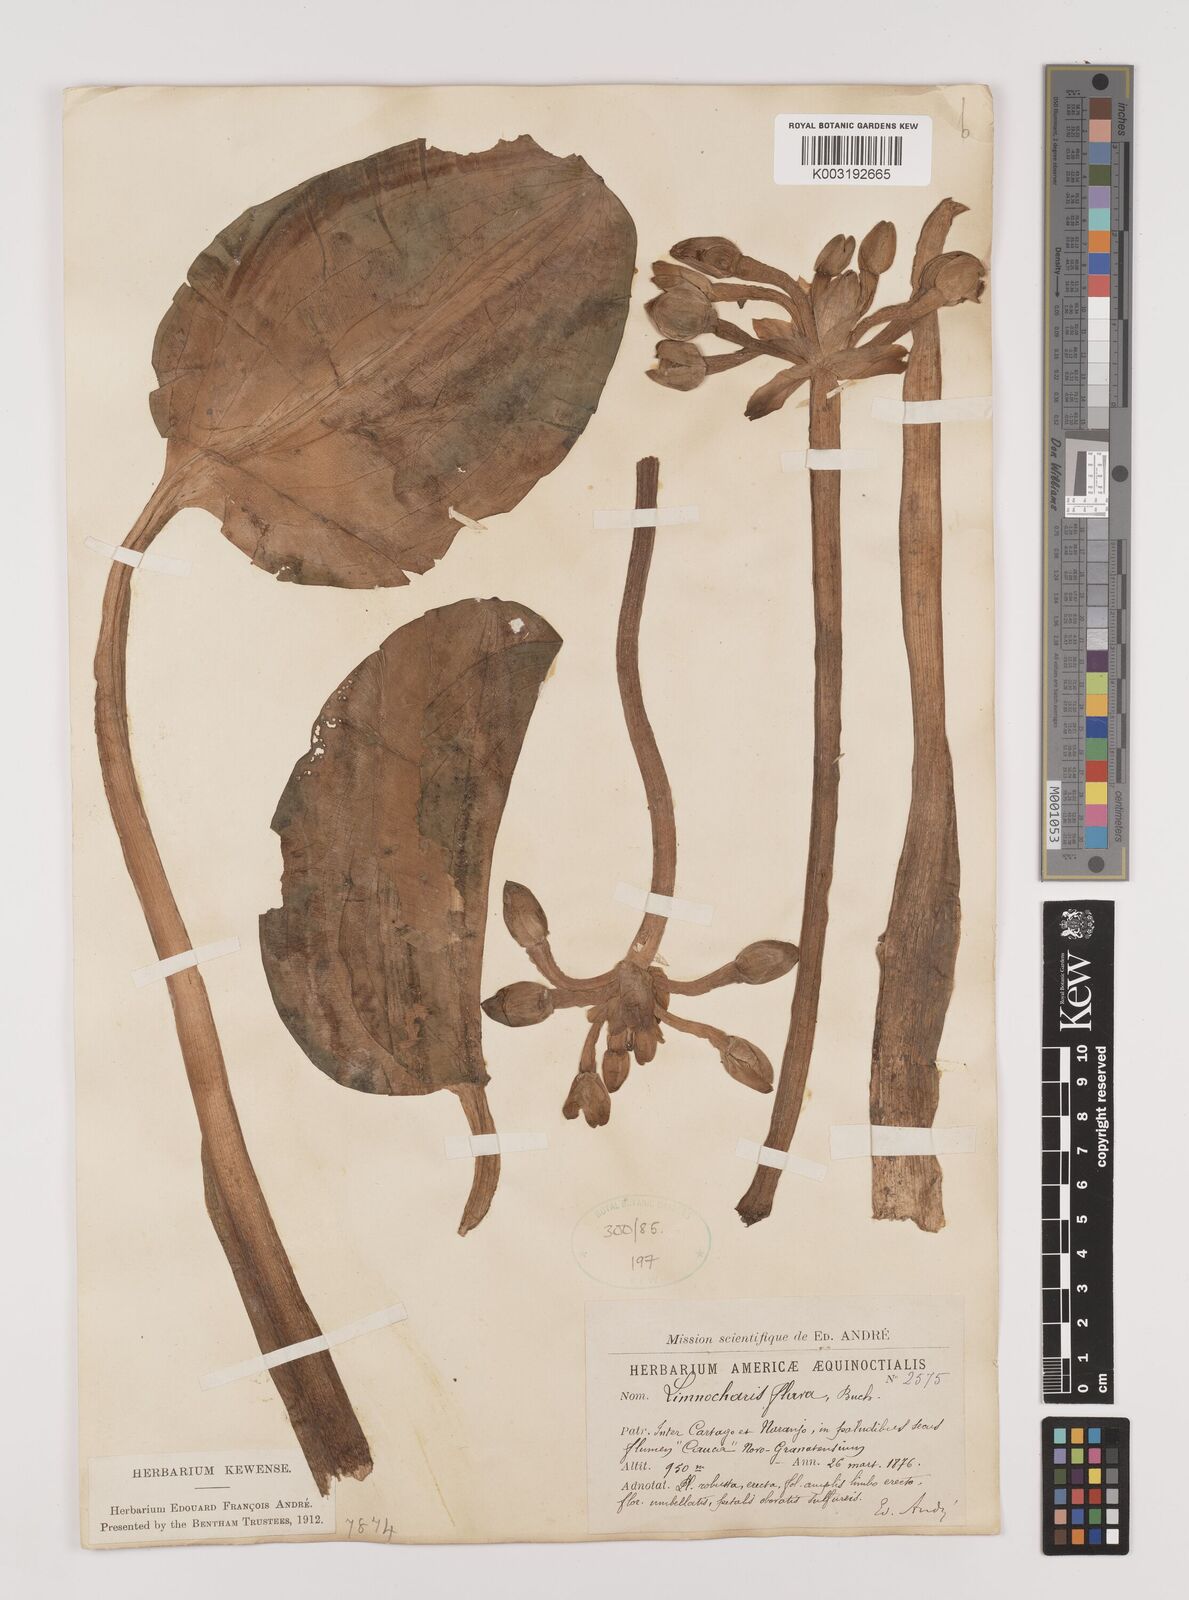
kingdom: Plantae
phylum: Tracheophyta
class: Liliopsida
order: Alismatales
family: Alismataceae
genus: Limnocharis
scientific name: Limnocharis flava
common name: Sawah-flower-rush
